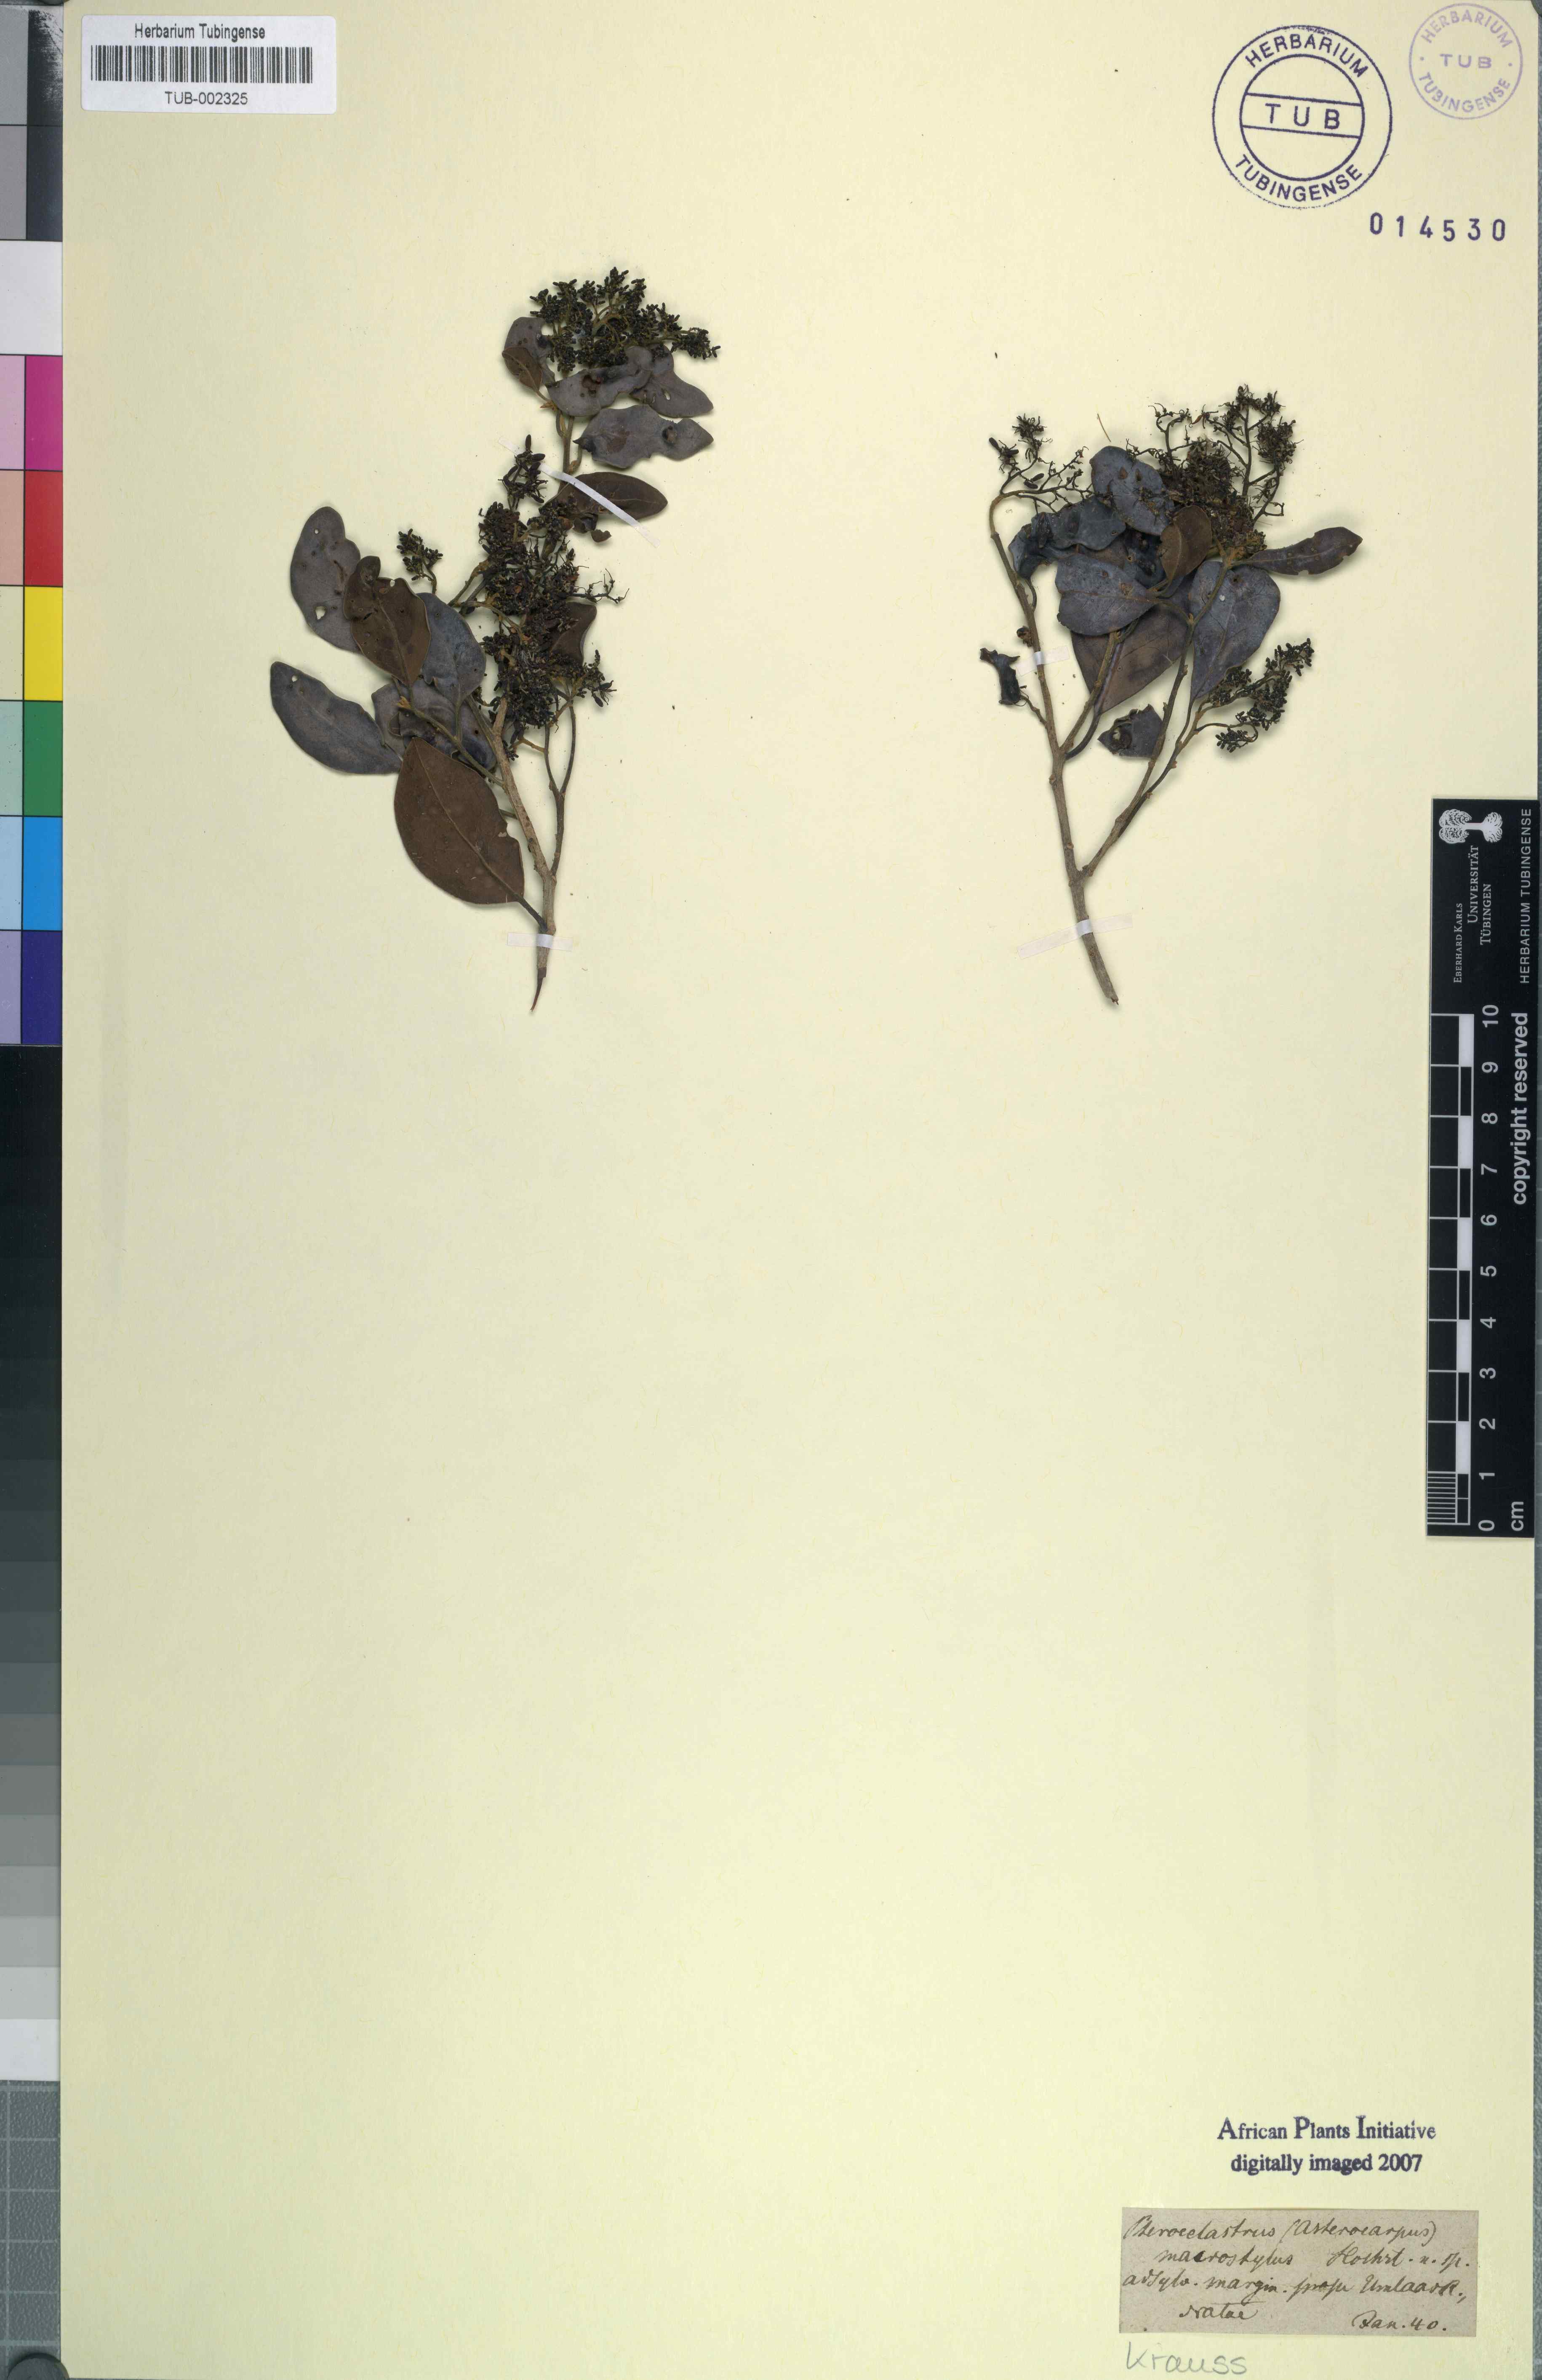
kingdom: Plantae
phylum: Tracheophyta
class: Magnoliopsida
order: Metteniusales
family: Metteniusaceae
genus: Apodytes
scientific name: Apodytes dimidiata
